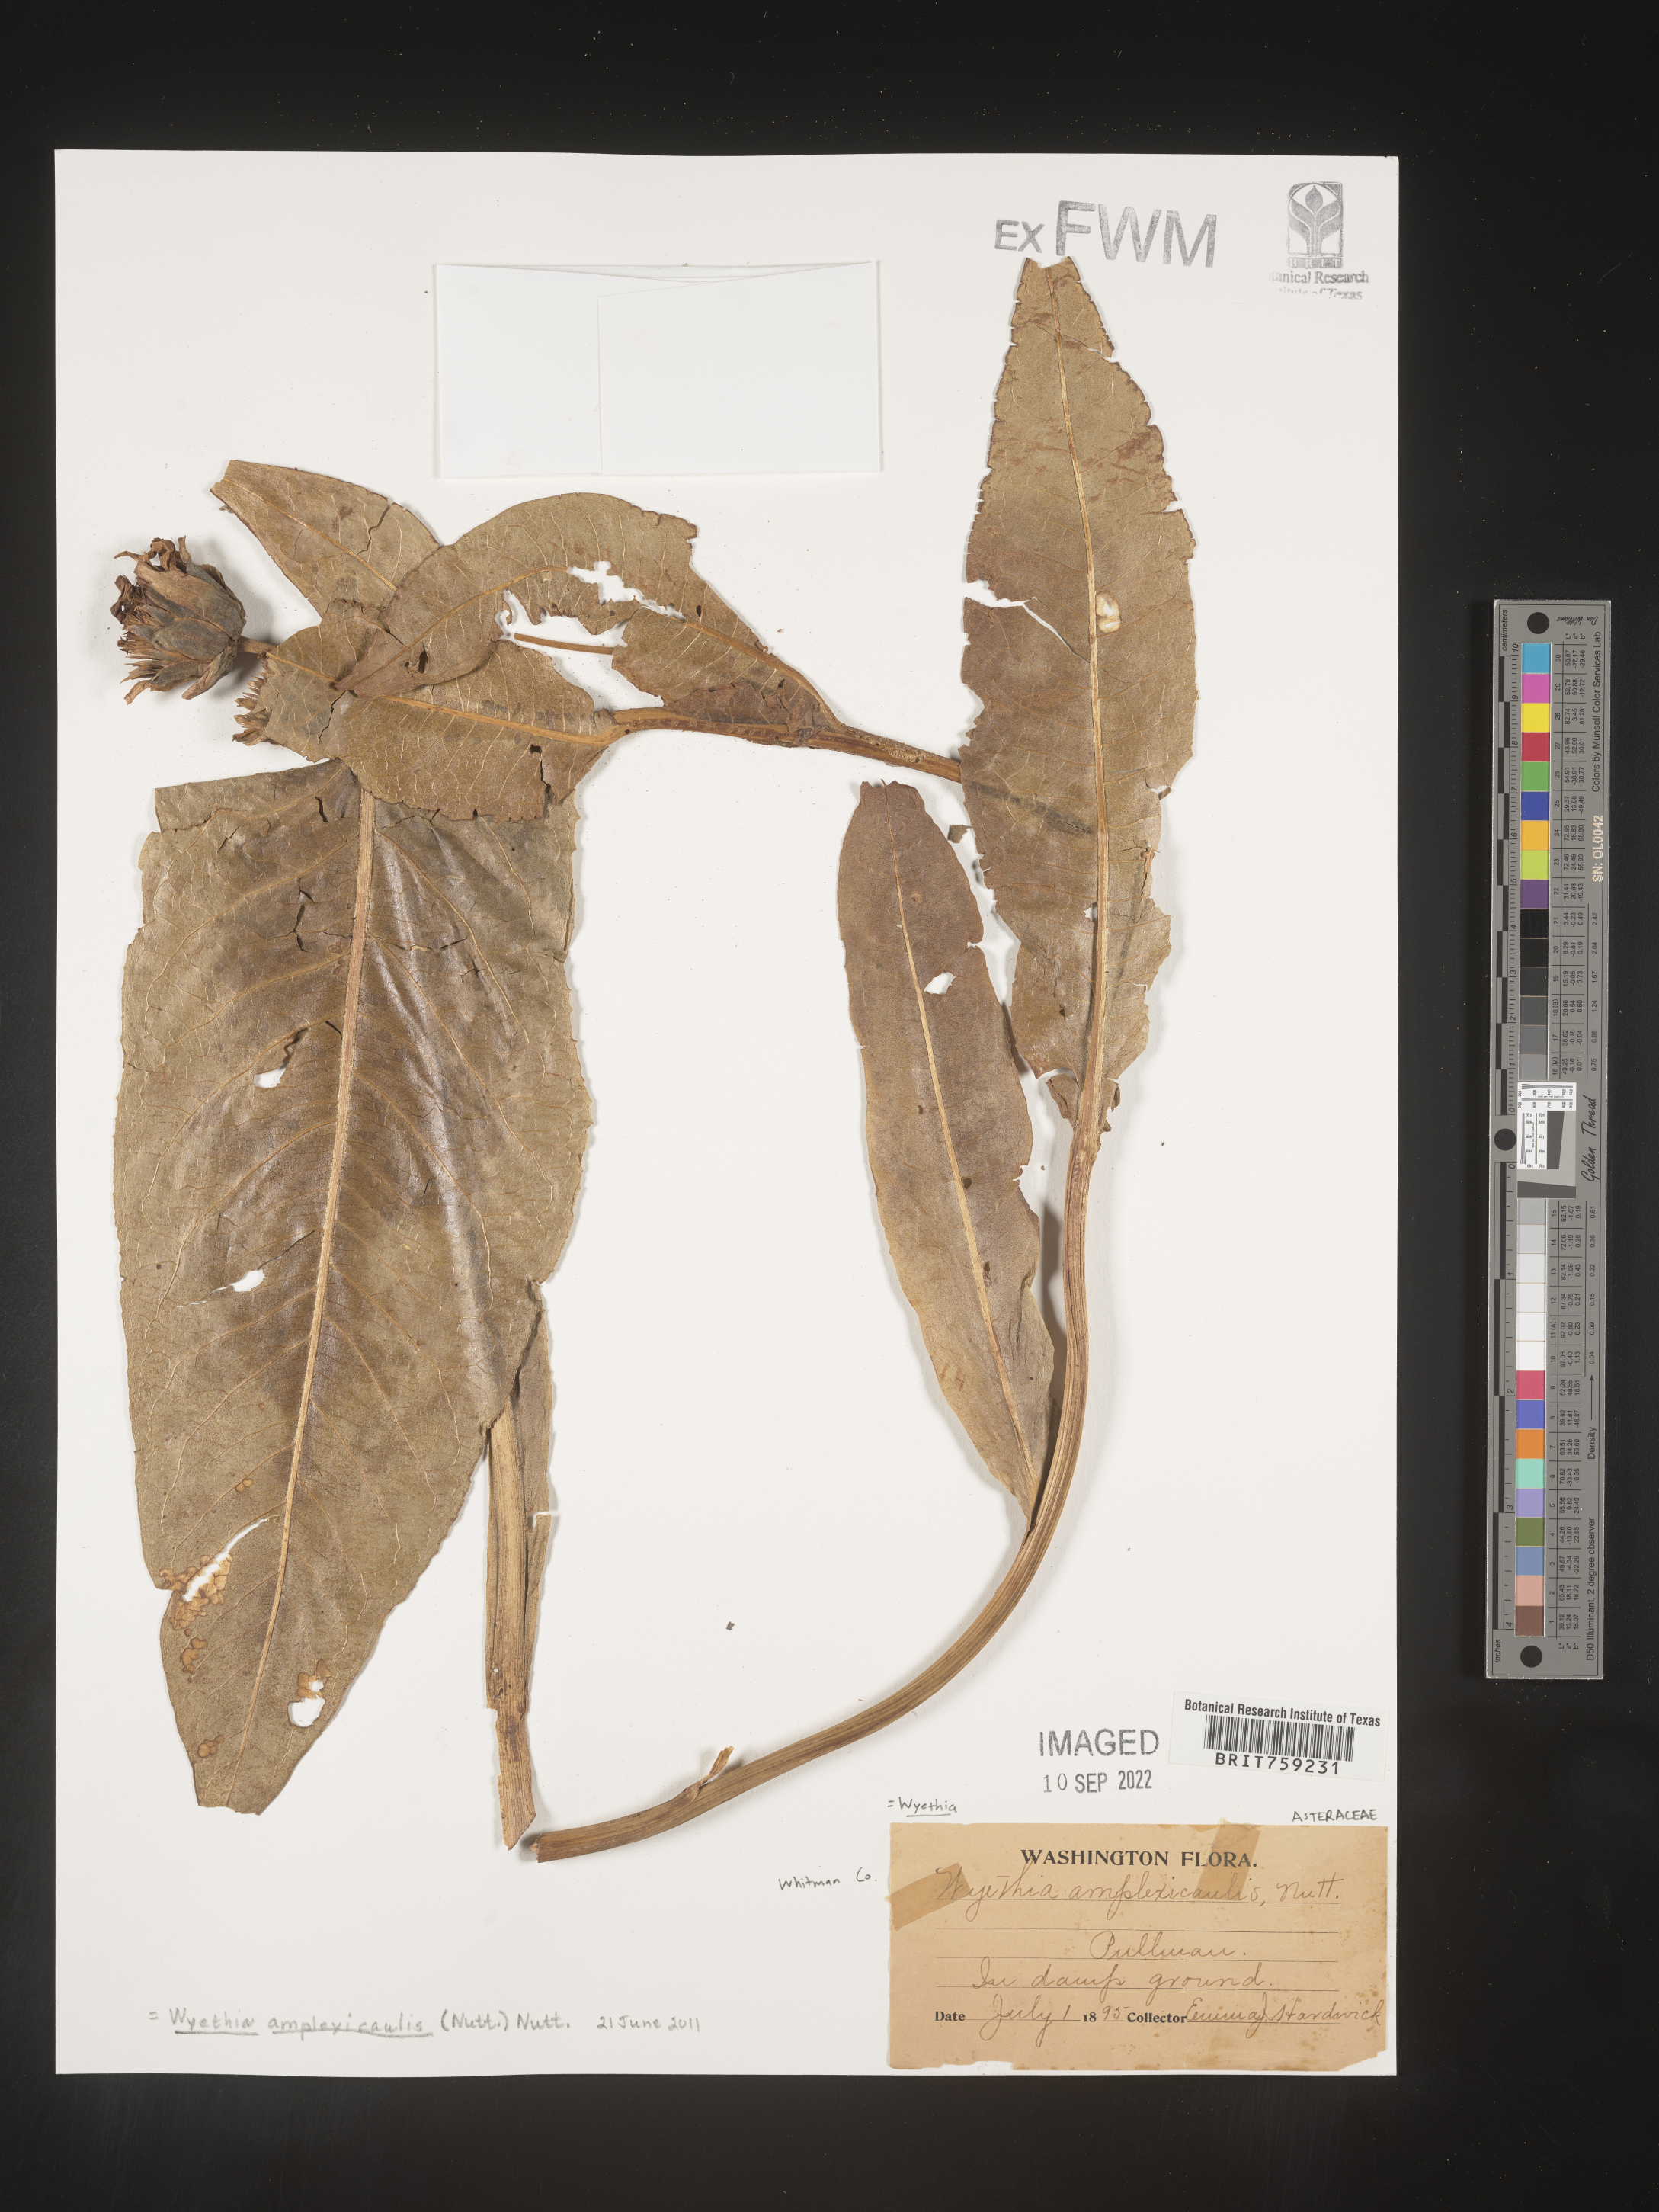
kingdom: Plantae
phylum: Tracheophyta
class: Magnoliopsida
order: Asterales
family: Asteraceae
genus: Wyethia
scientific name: Wyethia amplexicaulis
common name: Northern mule's-ears
